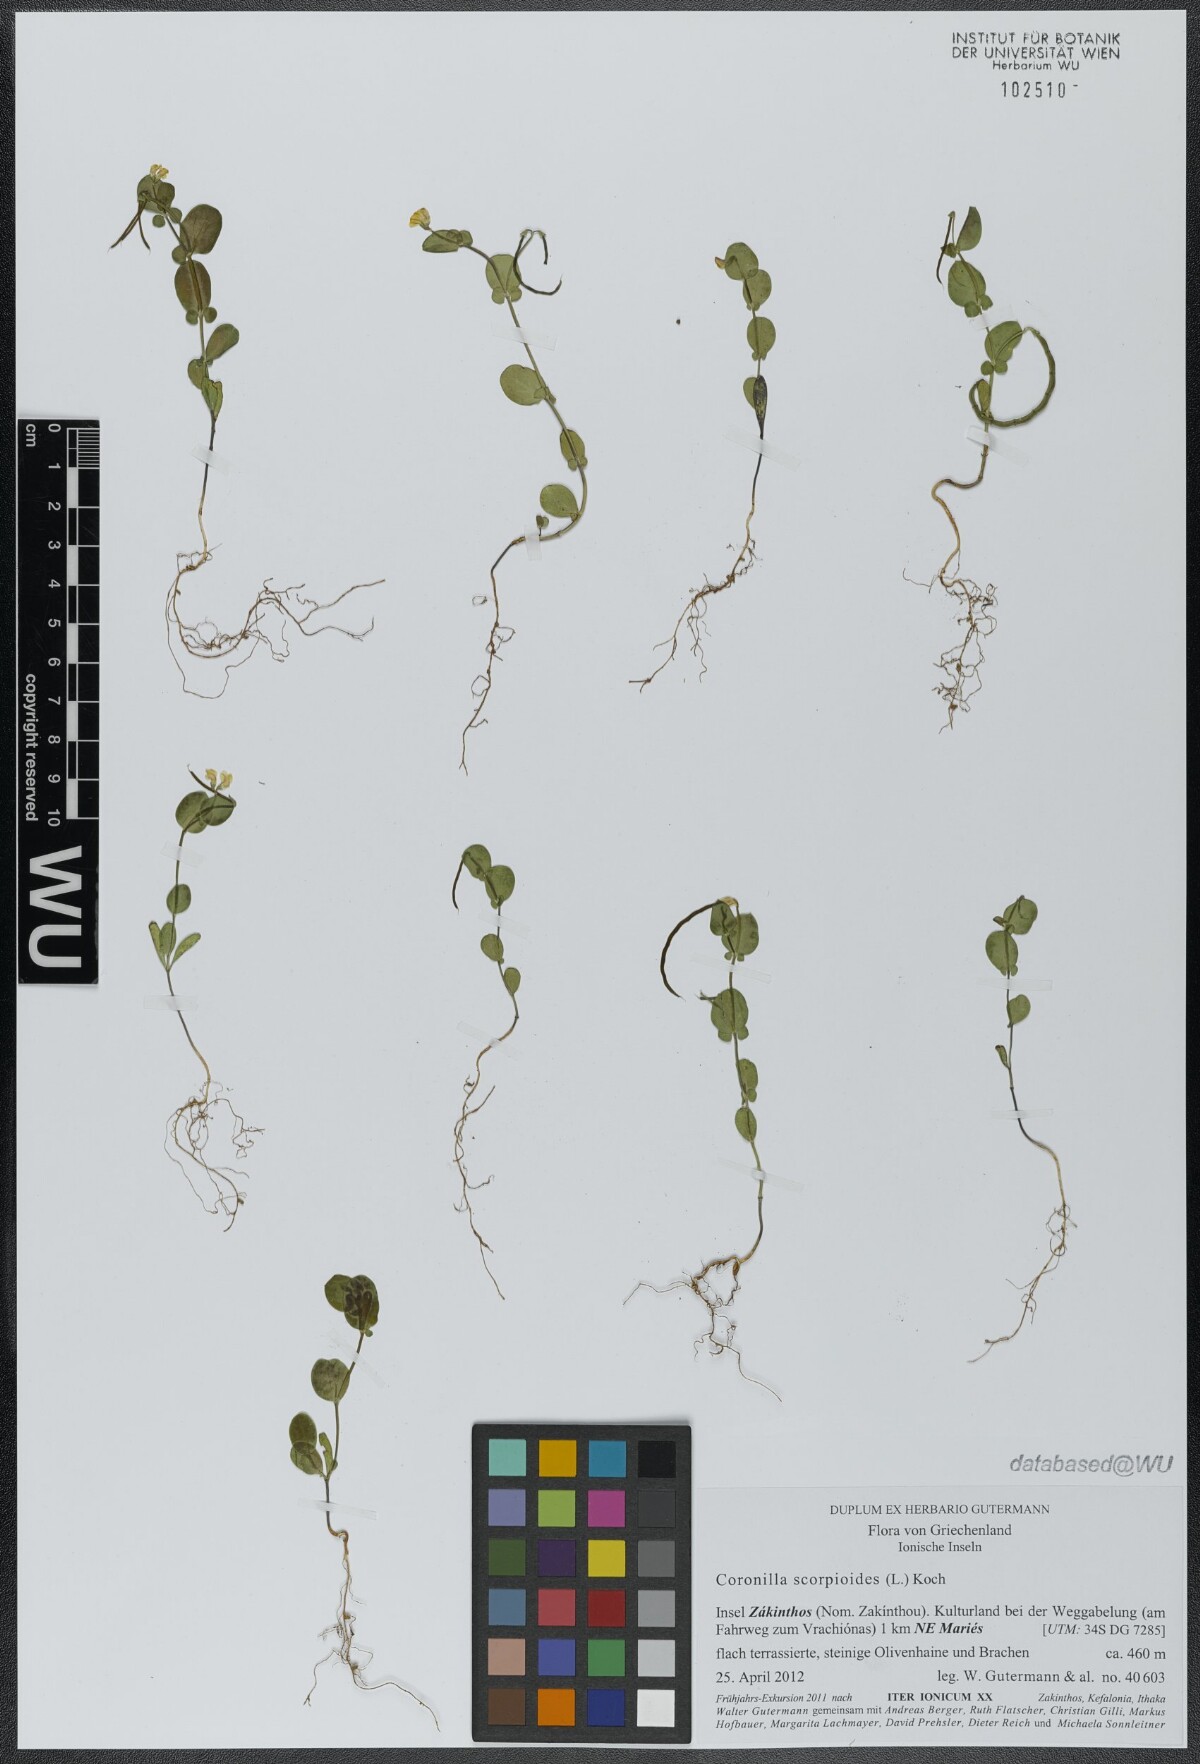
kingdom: Plantae
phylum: Tracheophyta
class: Magnoliopsida
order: Fabales
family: Fabaceae
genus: Coronilla
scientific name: Coronilla scorpioides
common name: Annual scorpion-vetch
